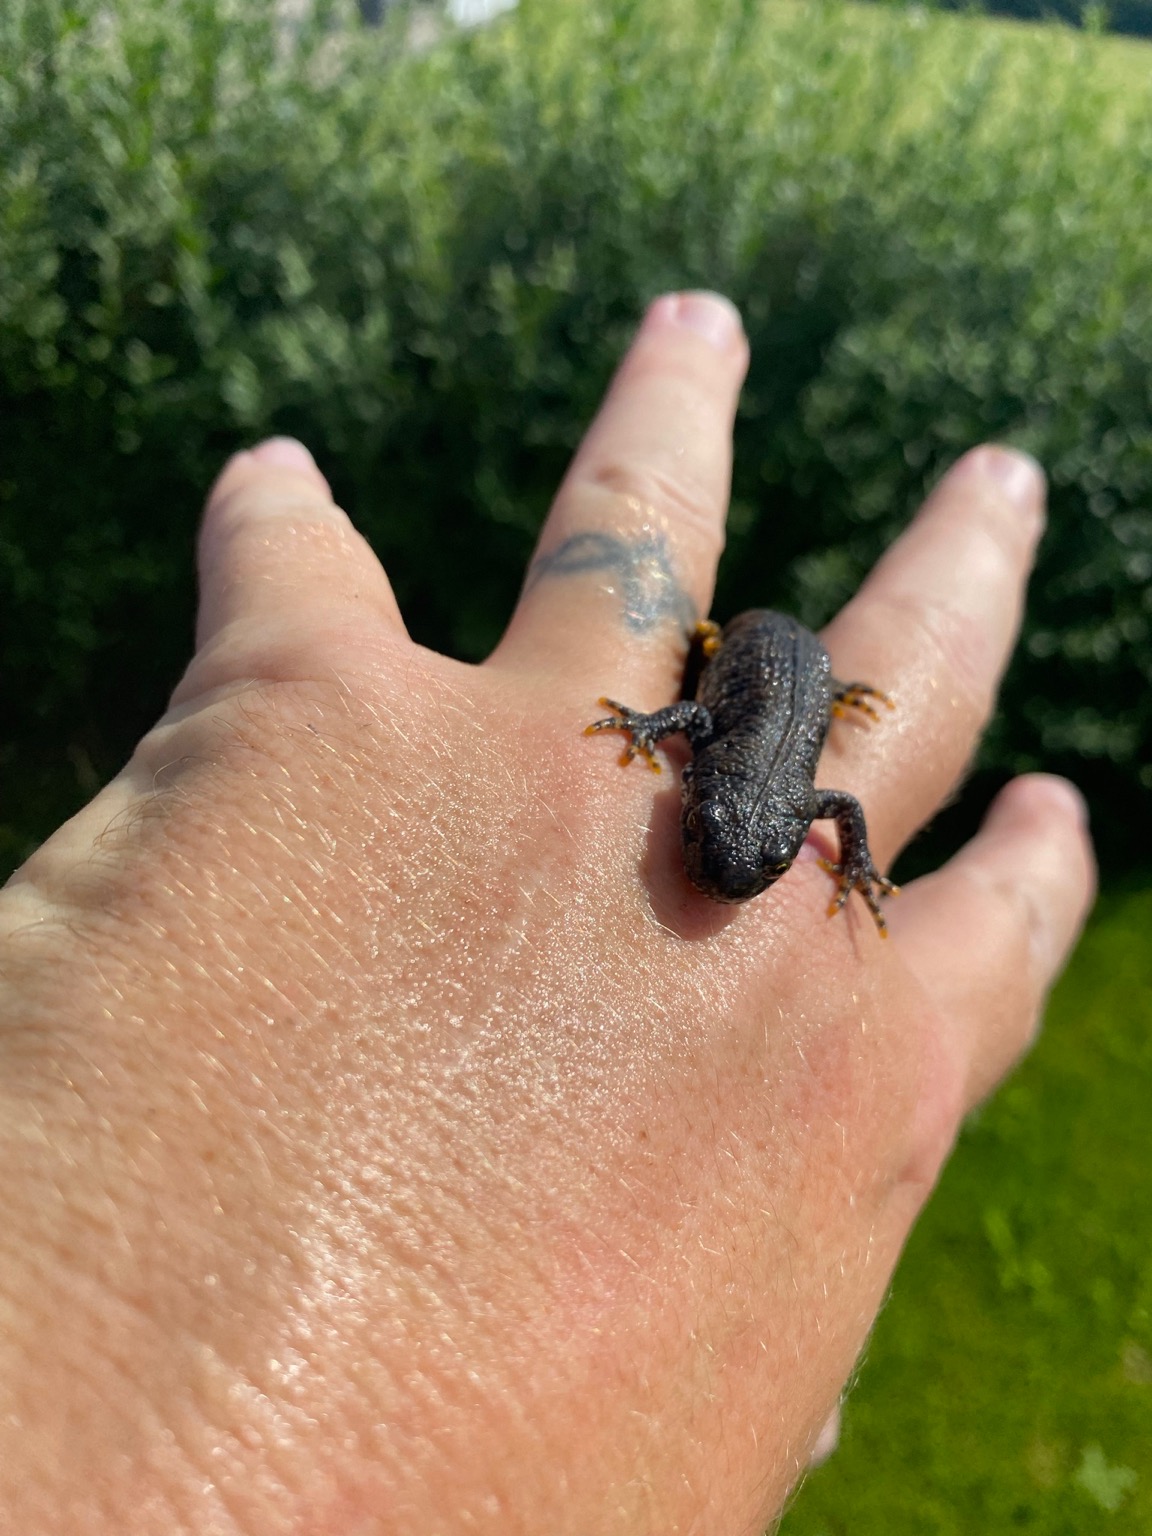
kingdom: Animalia
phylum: Chordata
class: Amphibia
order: Caudata
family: Salamandridae
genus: Triturus
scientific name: Triturus cristatus
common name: Stor vandsalamander
